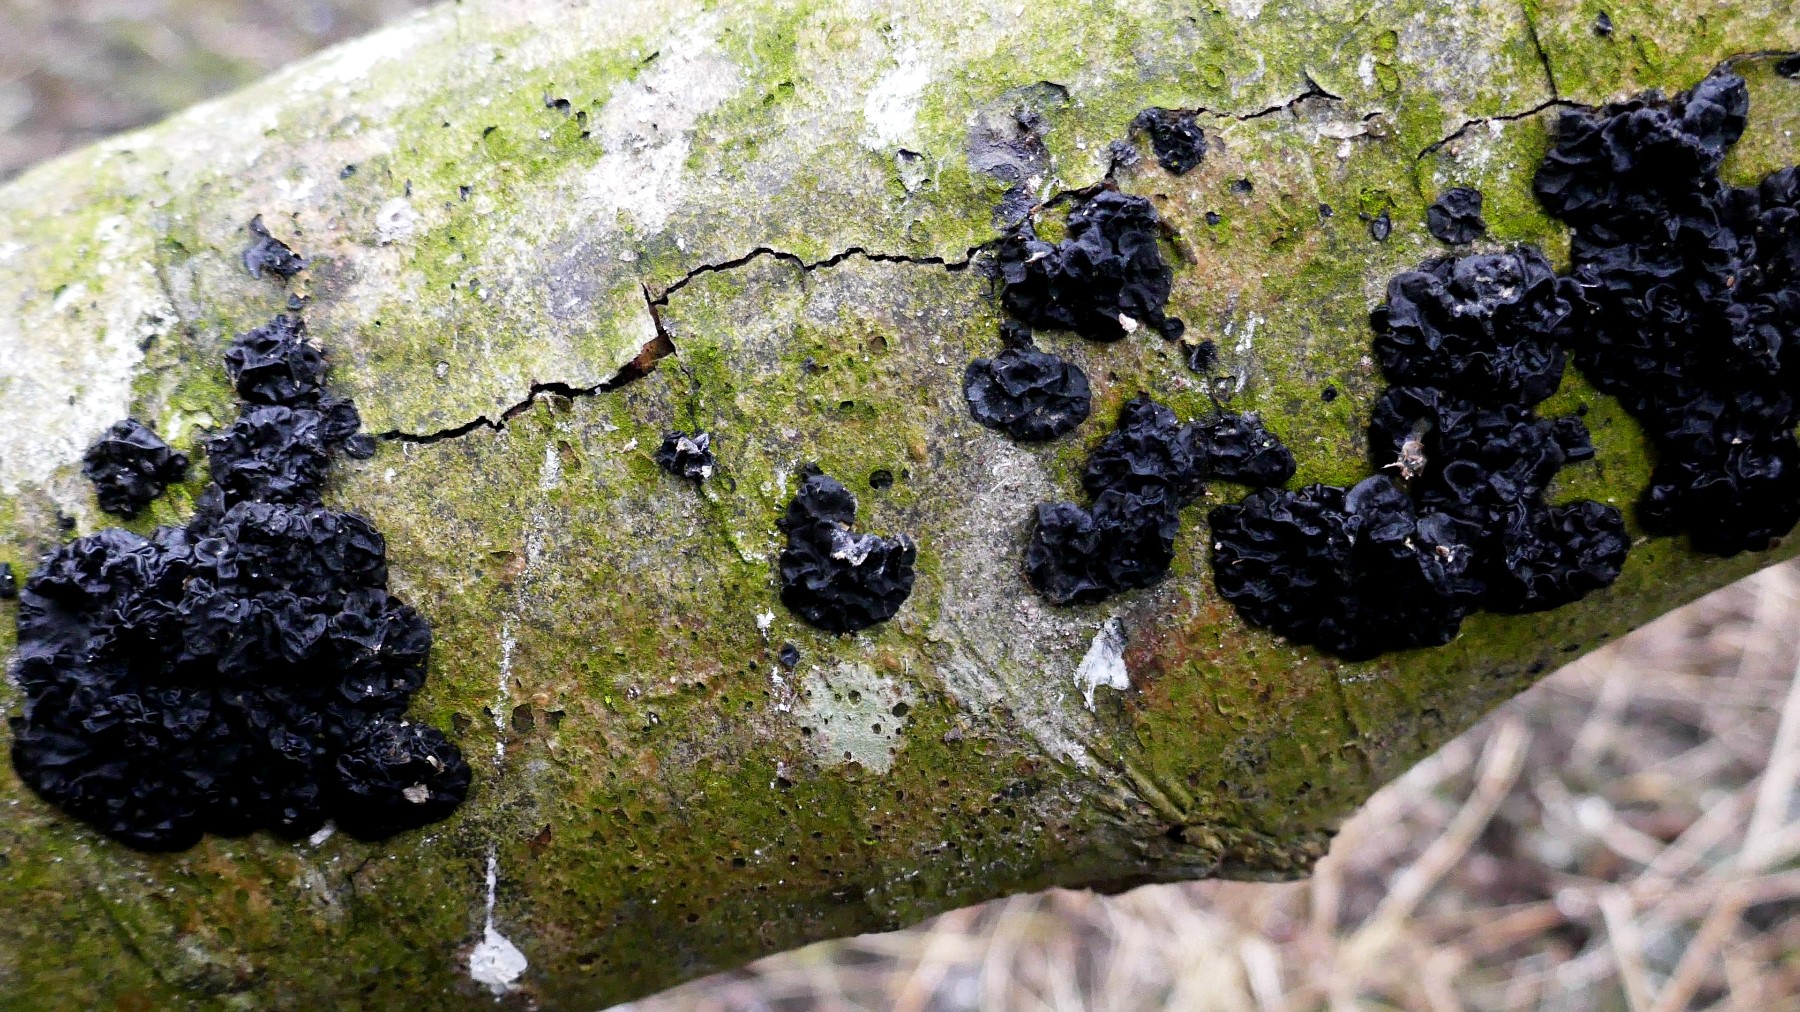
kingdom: Fungi
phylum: Basidiomycota
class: Agaricomycetes
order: Auriculariales
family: Auriculariaceae
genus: Exidia
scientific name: Exidia nigricans
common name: almindelig bævretop
